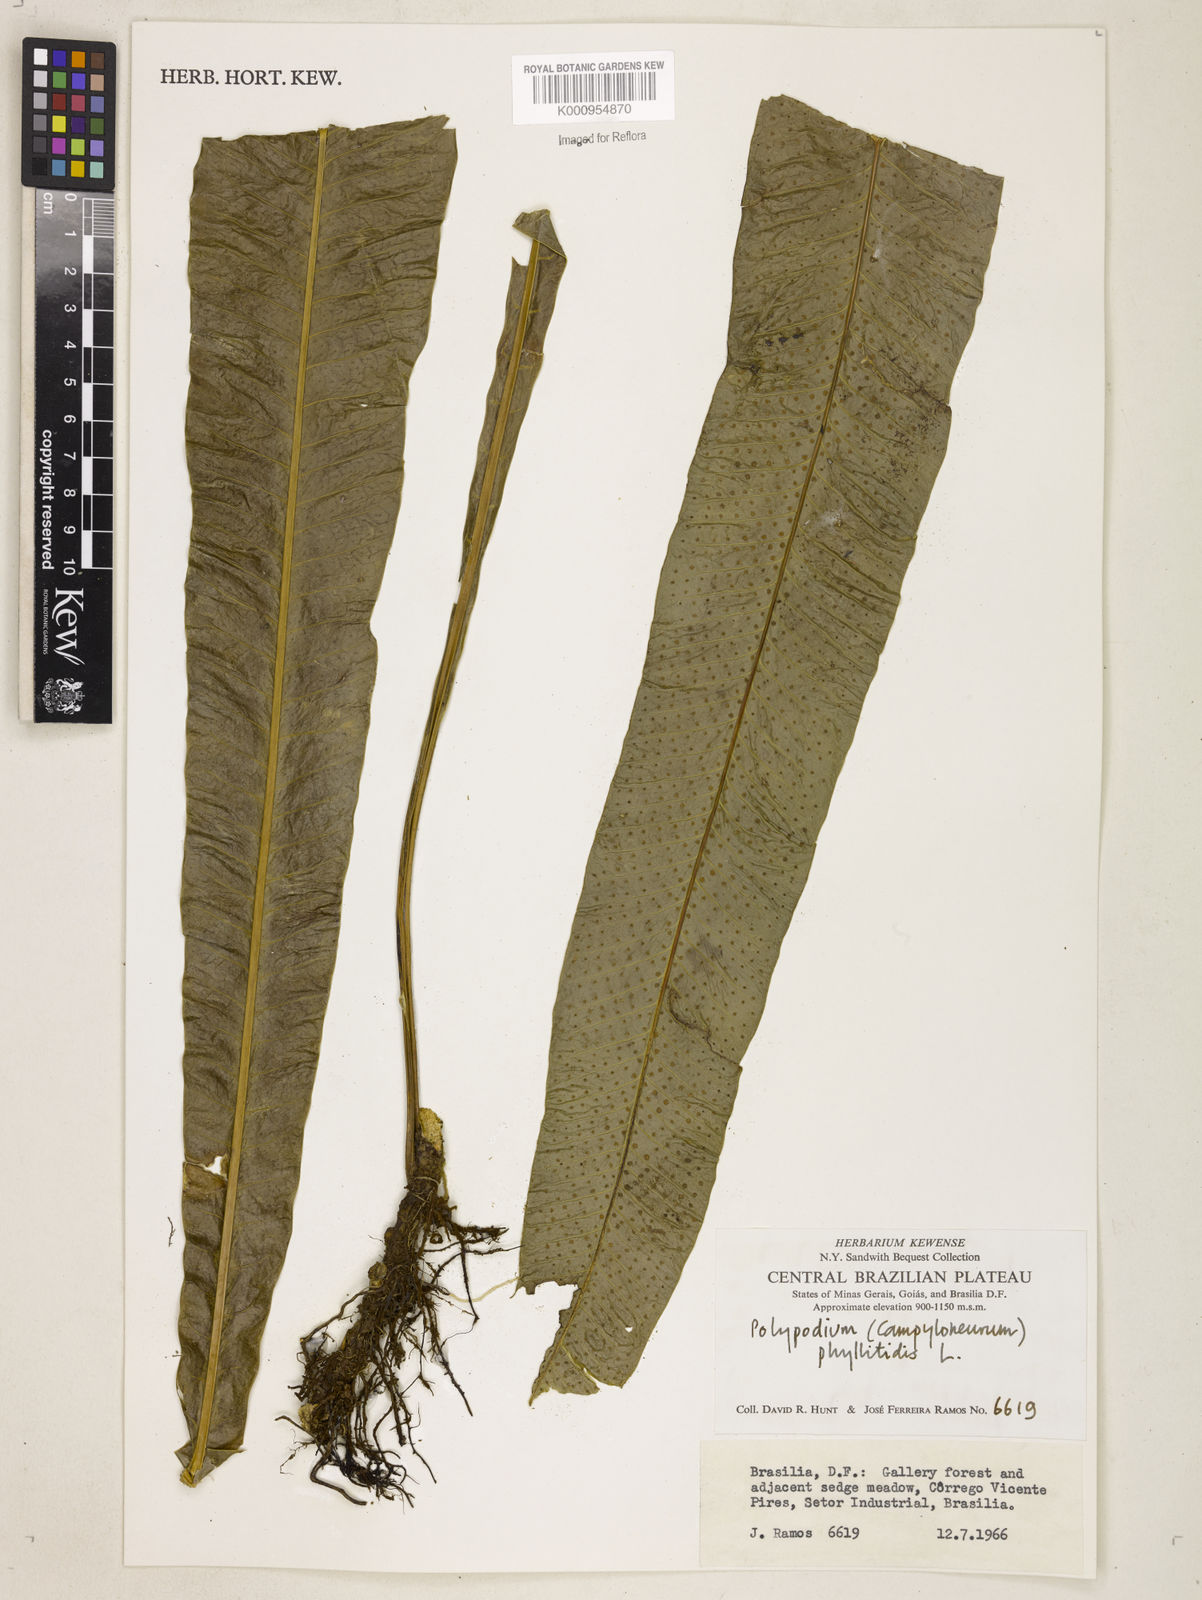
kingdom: Plantae
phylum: Tracheophyta
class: Polypodiopsida
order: Polypodiales
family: Polypodiaceae
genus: Campyloneurum
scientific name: Campyloneurum phyllitidis
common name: Cow-tongue fern
